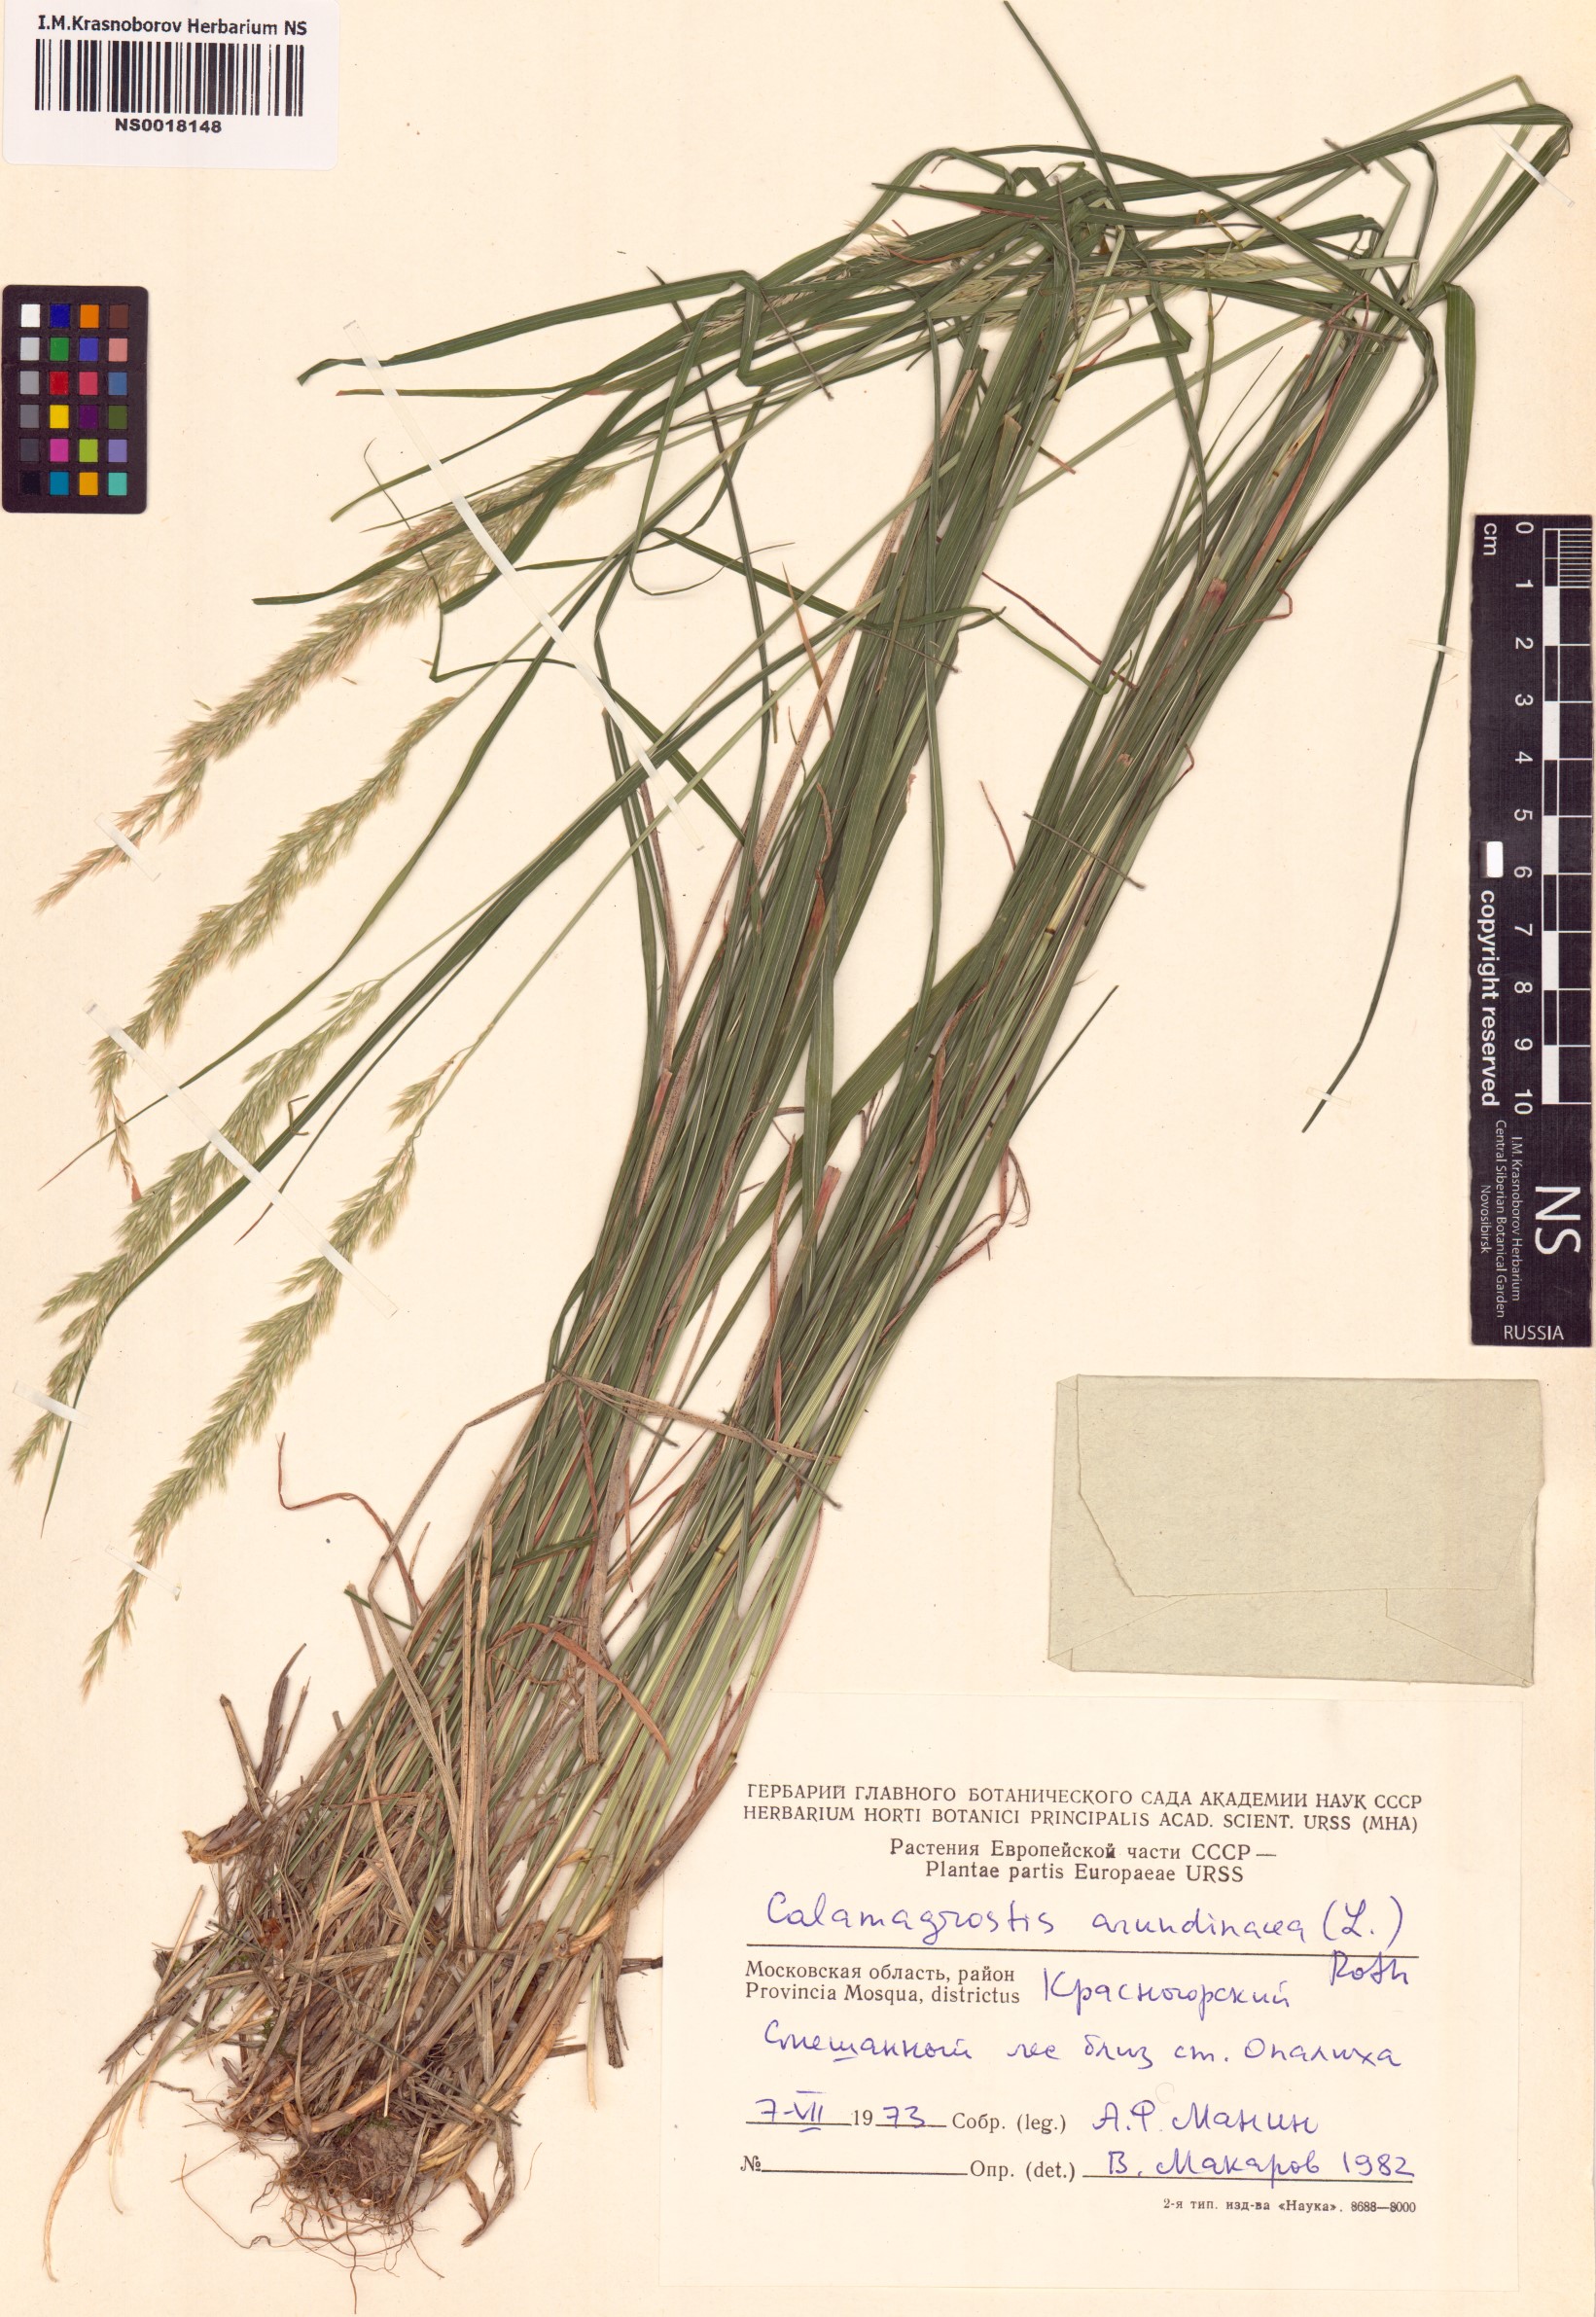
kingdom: Plantae
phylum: Tracheophyta
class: Liliopsida
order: Poales
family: Poaceae
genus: Calamagrostis
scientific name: Calamagrostis arundinacea
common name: Metskastik
